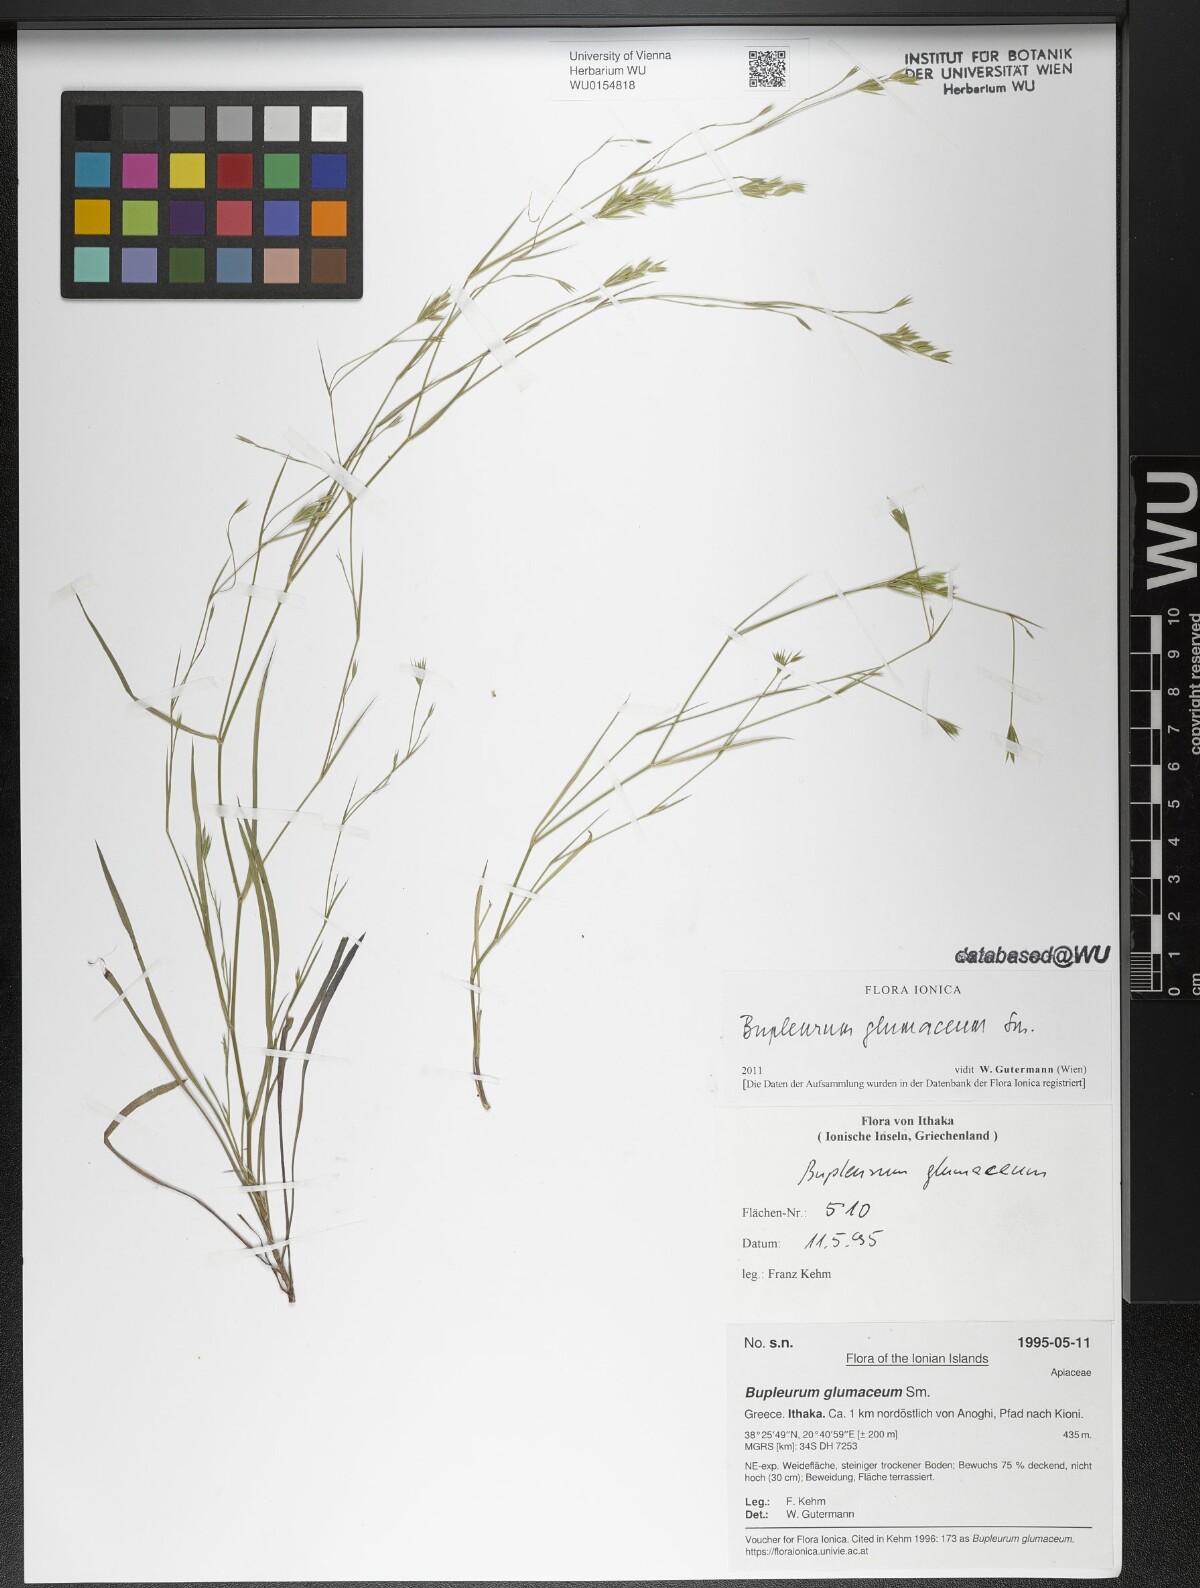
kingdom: Plantae
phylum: Tracheophyta
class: Magnoliopsida
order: Apiales
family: Apiaceae
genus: Bupleurum
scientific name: Bupleurum glumaceum
